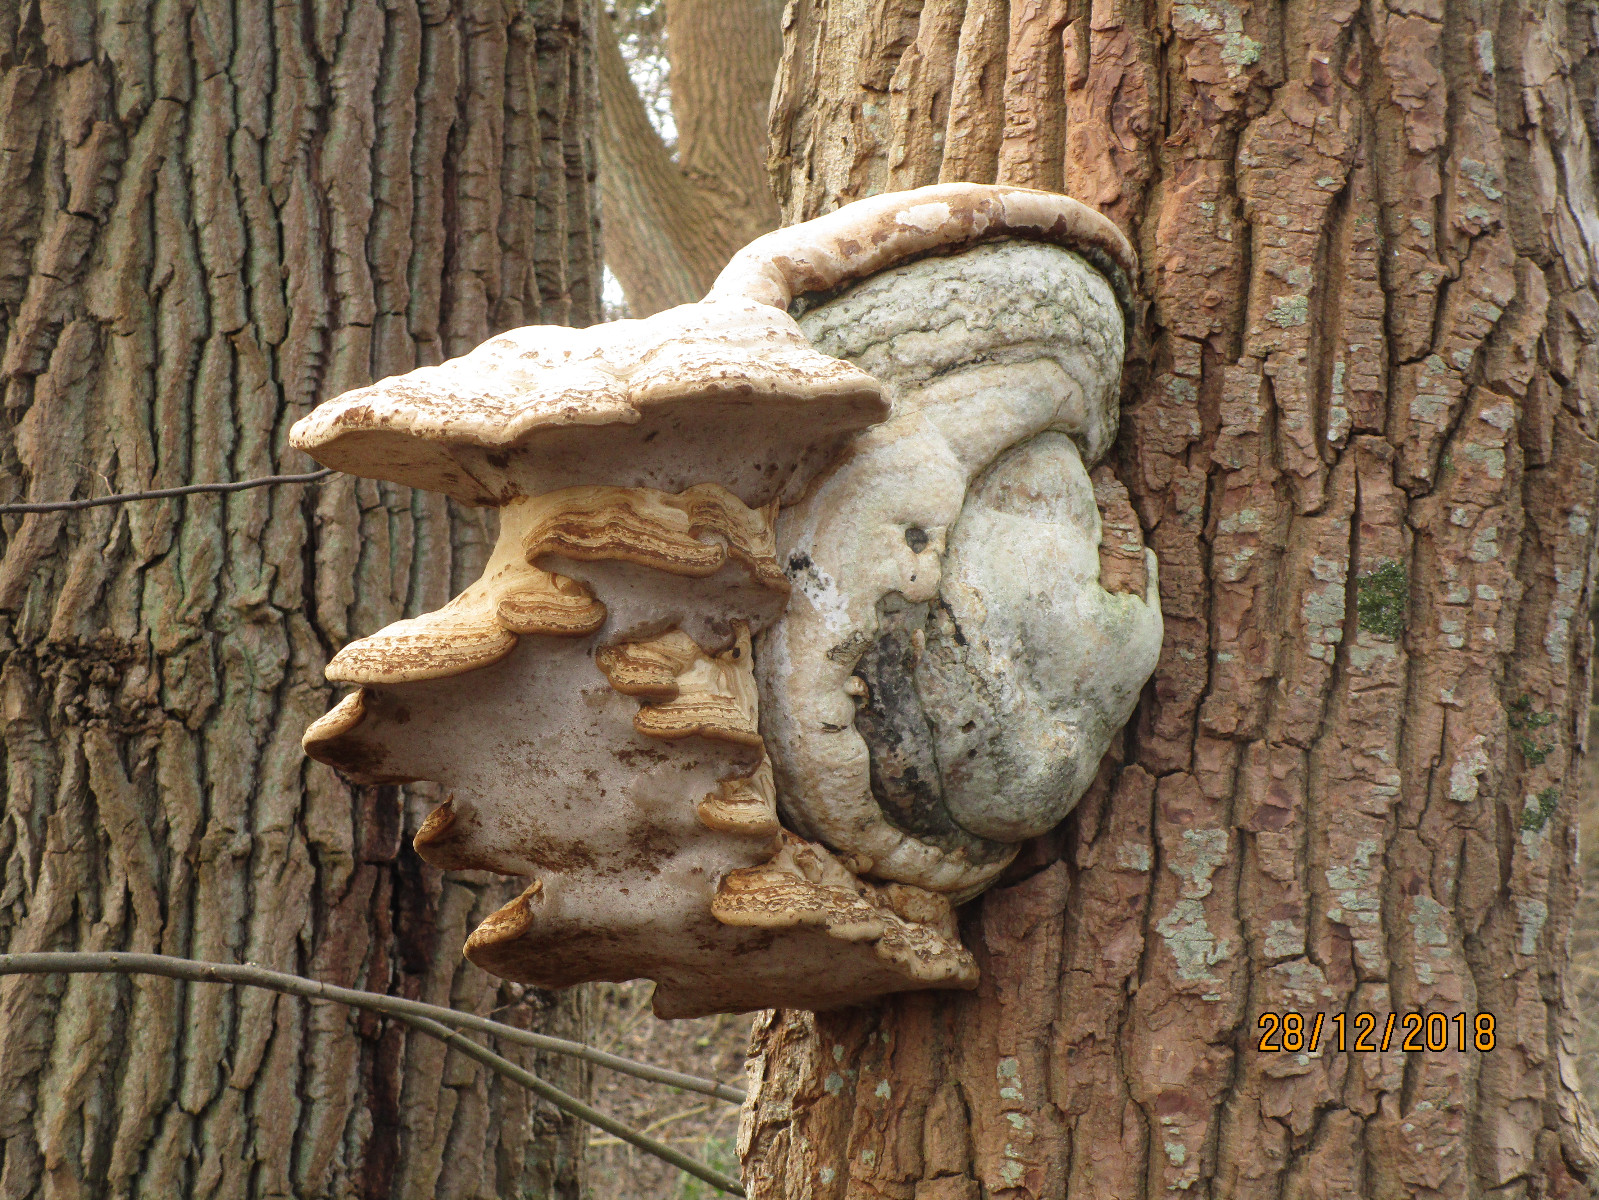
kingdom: Fungi
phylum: Basidiomycota
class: Agaricomycetes
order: Polyporales
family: Polyporaceae
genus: Fomes
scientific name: Fomes fomentarius
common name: tøndersvamp
